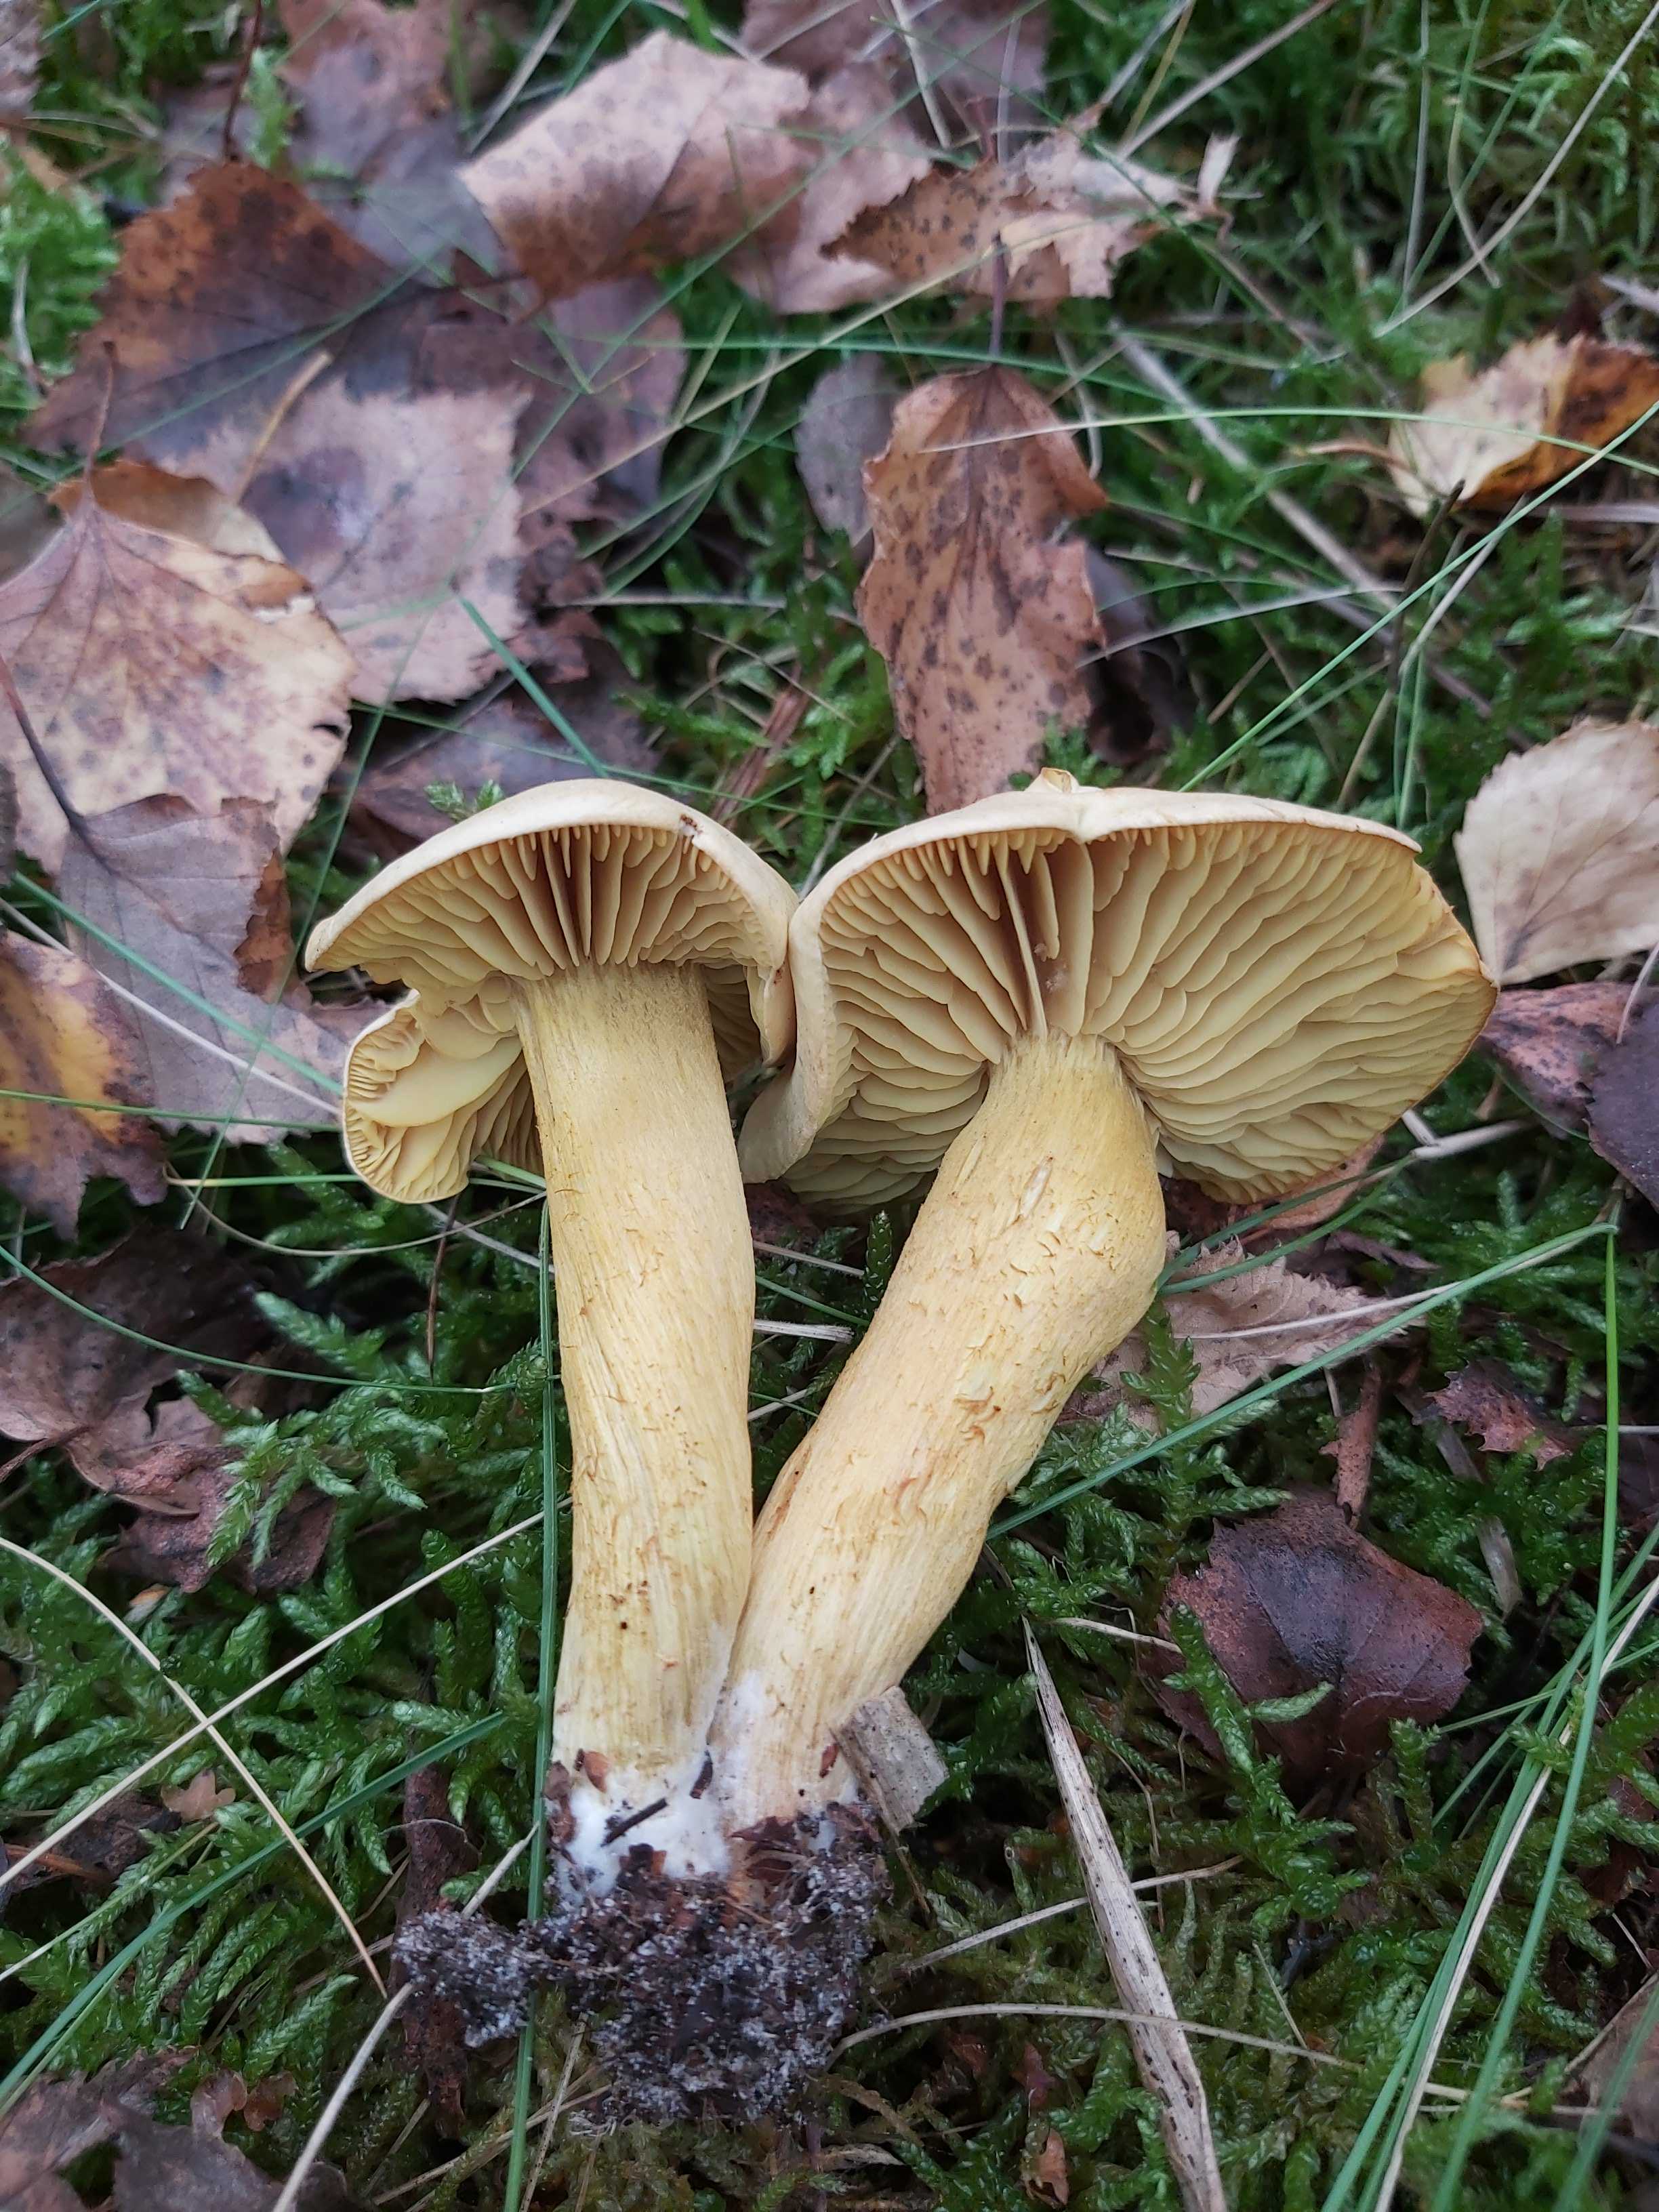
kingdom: Fungi
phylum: Basidiomycota
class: Agaricomycetes
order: Agaricales
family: Tricholomataceae
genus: Tricholoma
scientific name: Tricholoma sulphureum
